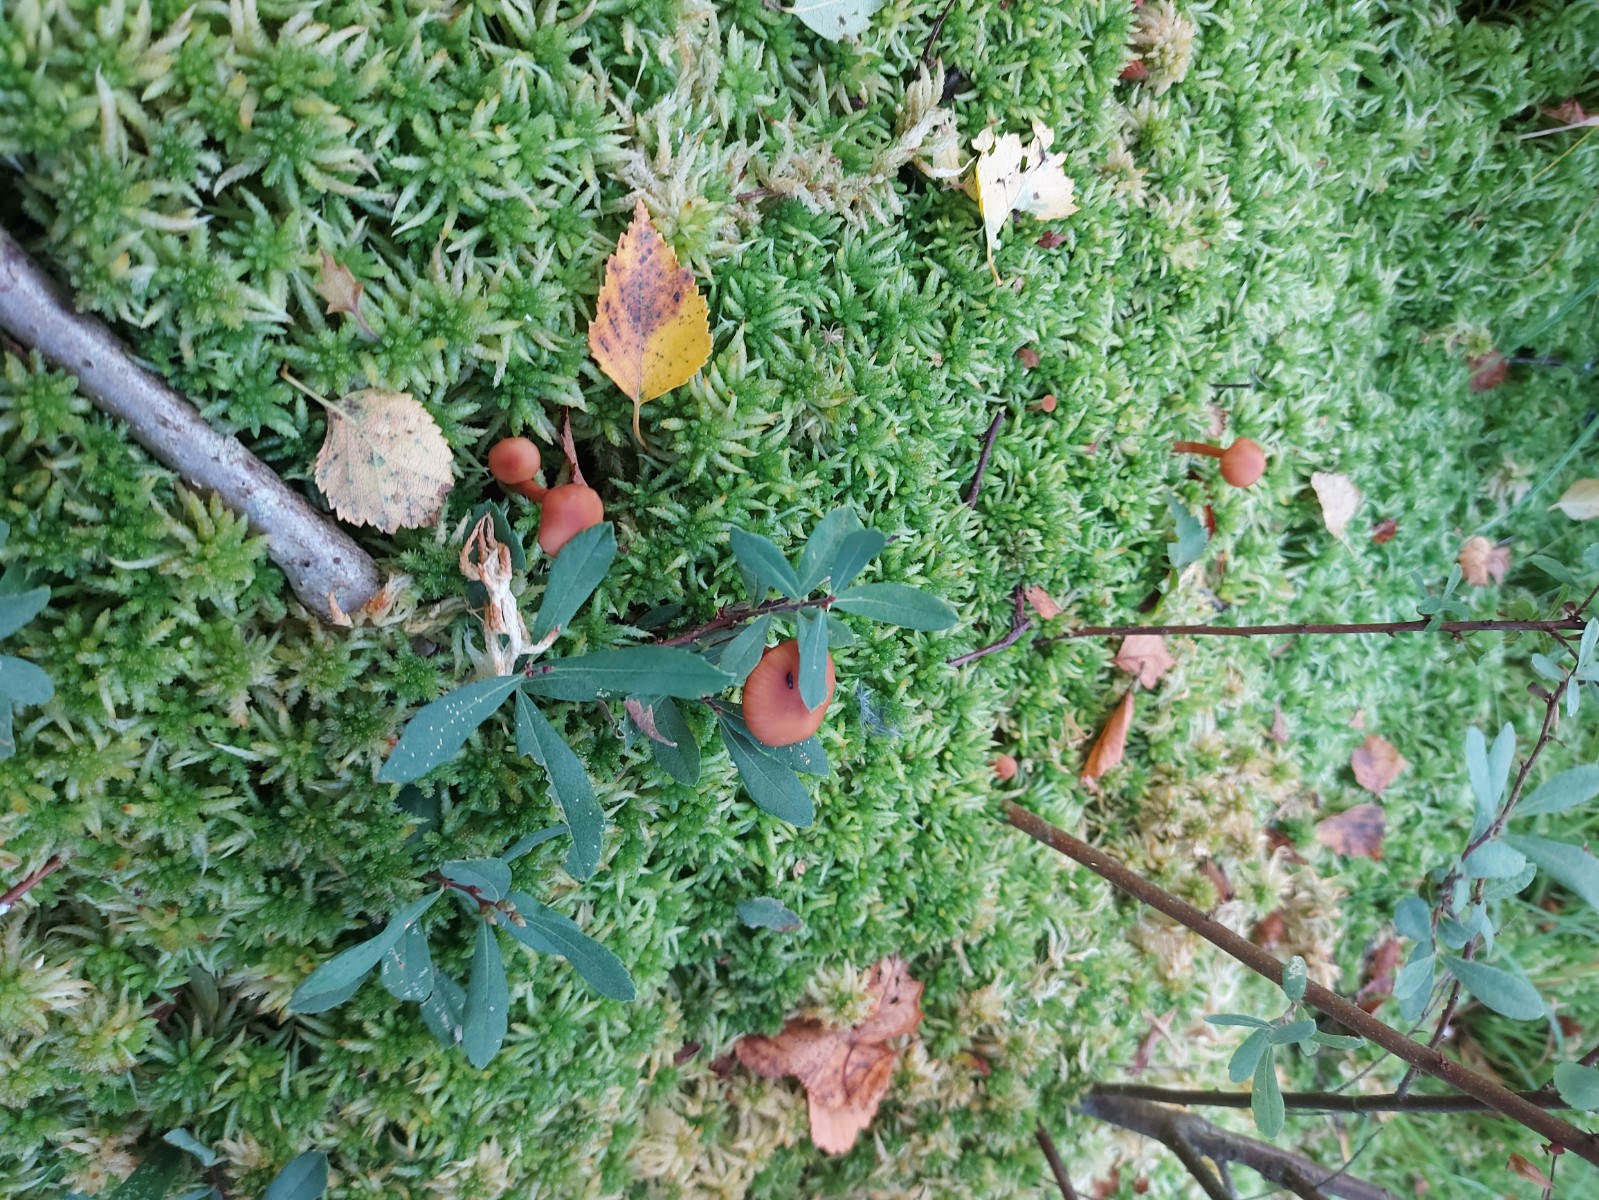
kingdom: Fungi
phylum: Basidiomycota
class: Agaricomycetes
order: Agaricales
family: Hydnangiaceae
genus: Laccaria
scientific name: Laccaria
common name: ametysthat
